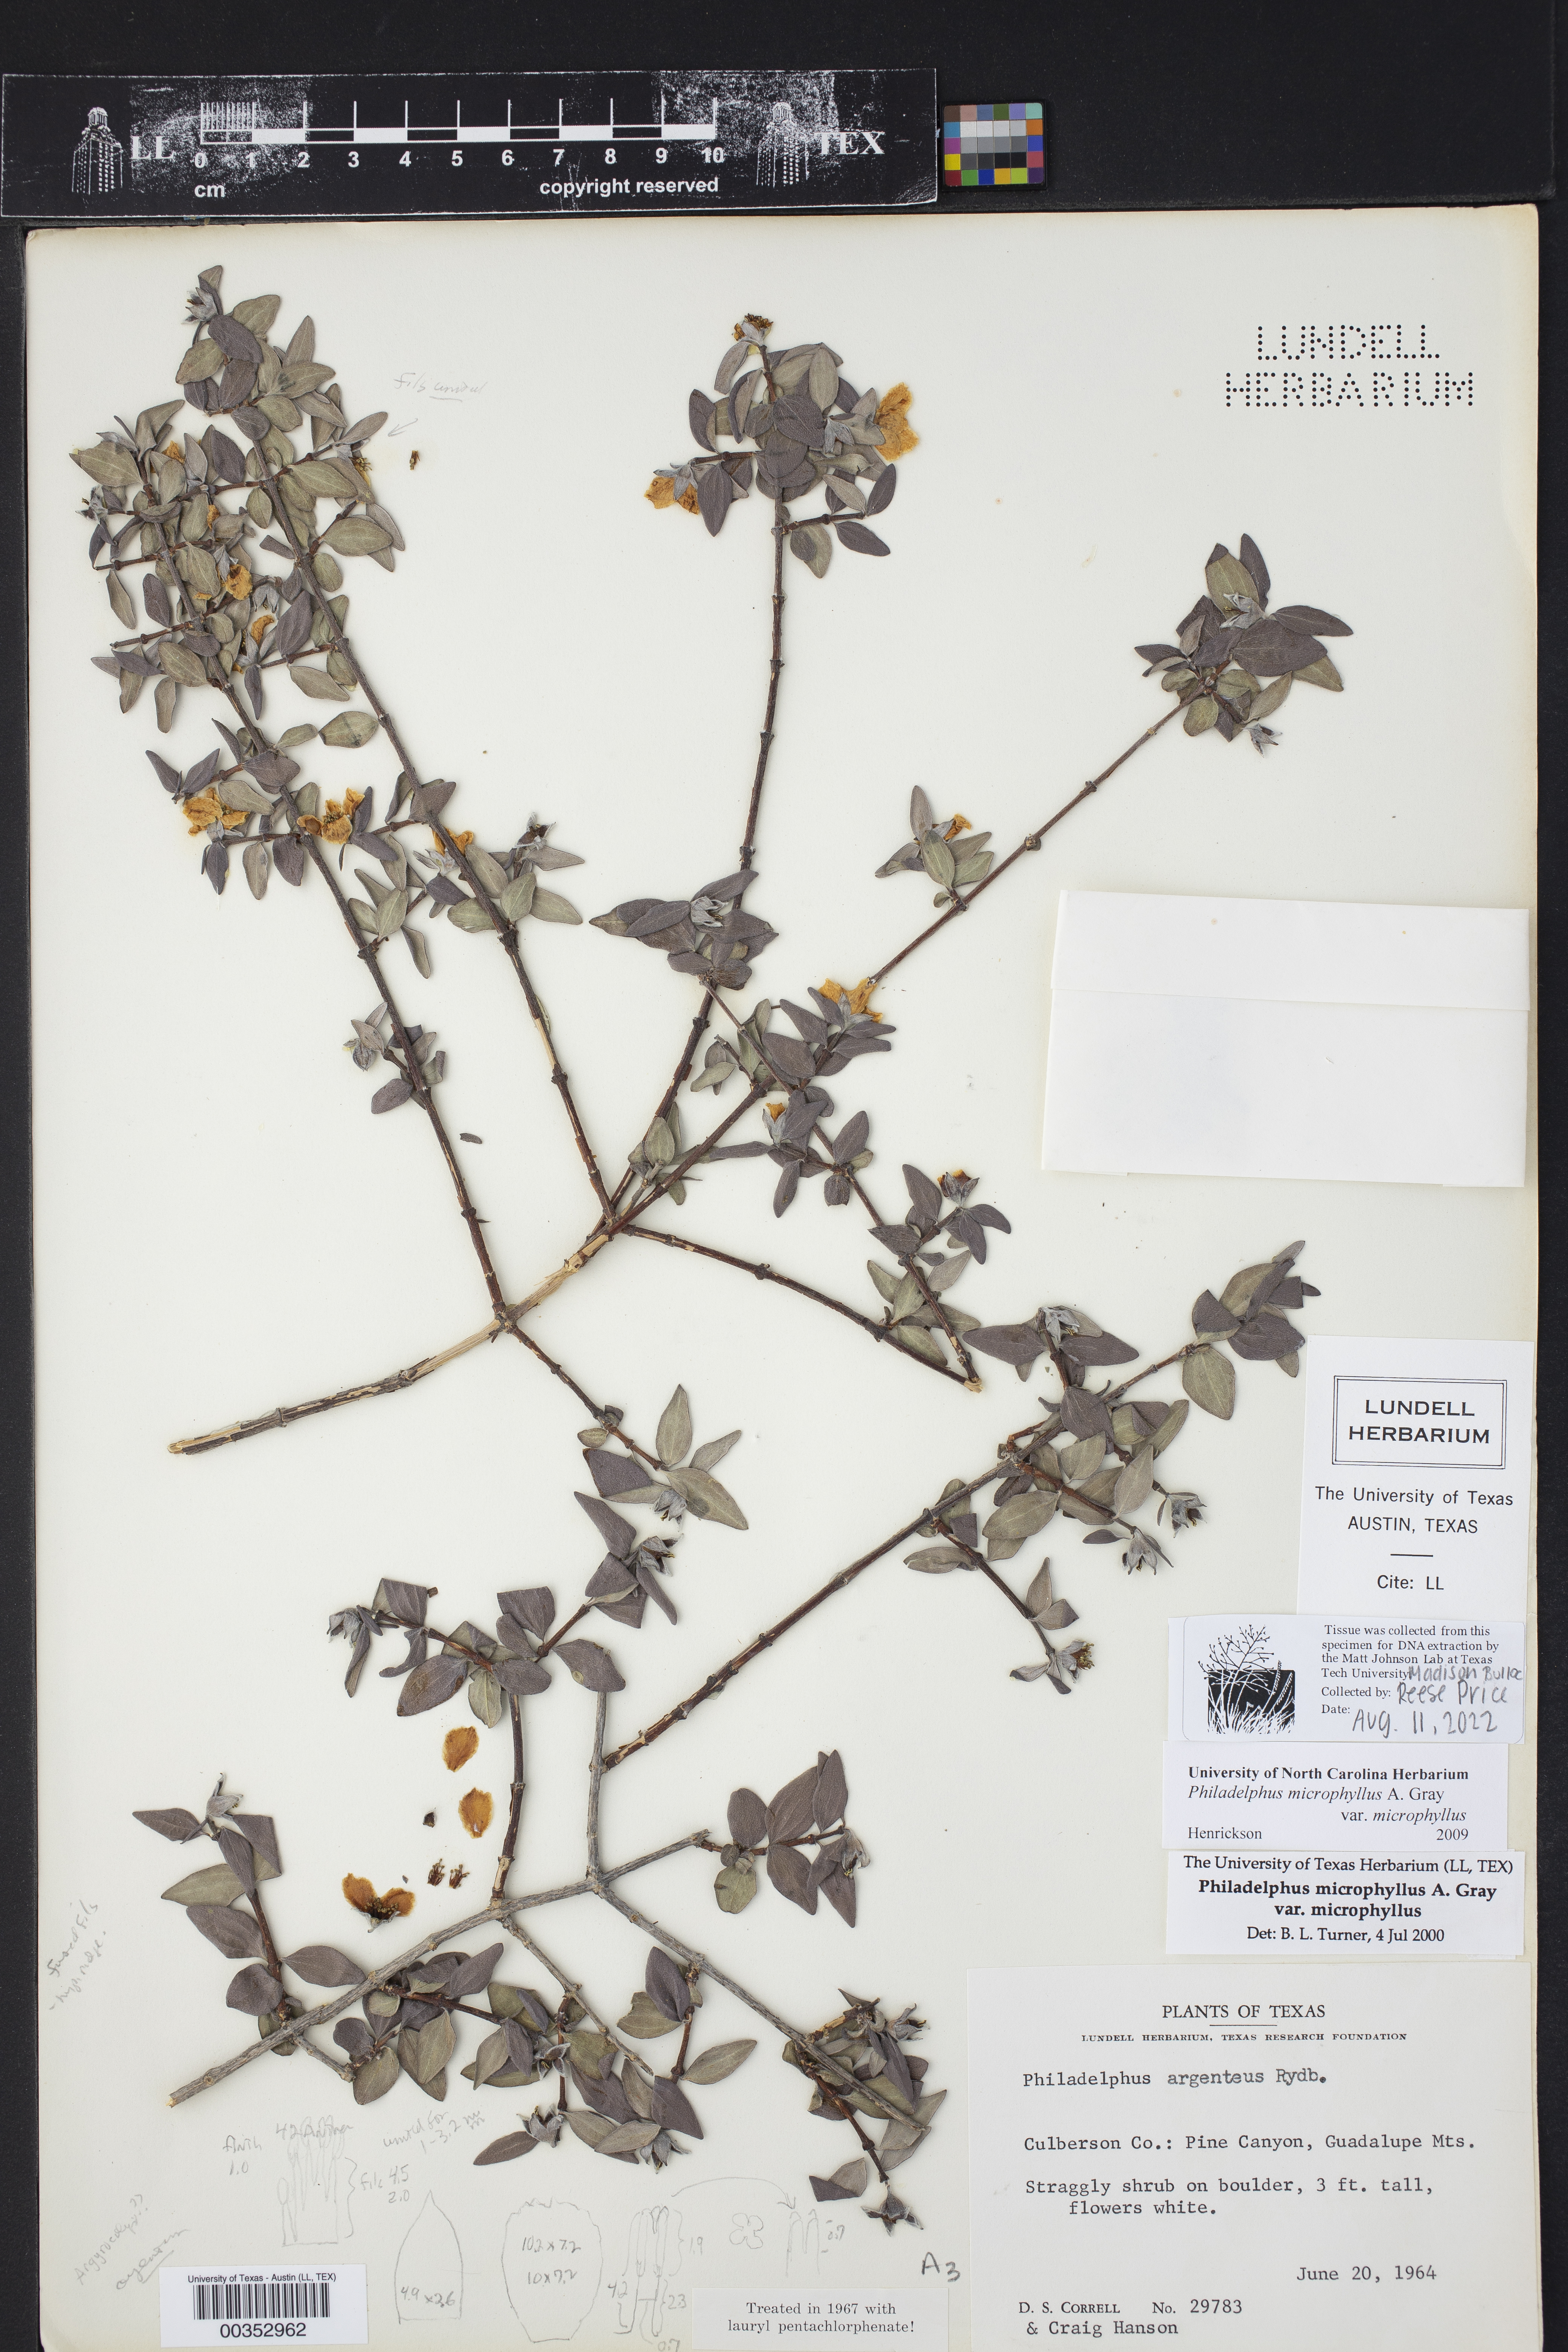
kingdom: Plantae
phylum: Tracheophyta
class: Magnoliopsida
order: Cornales
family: Hydrangeaceae
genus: Philadelphus
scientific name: Philadelphus microphyllus
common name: Desert mock orange
